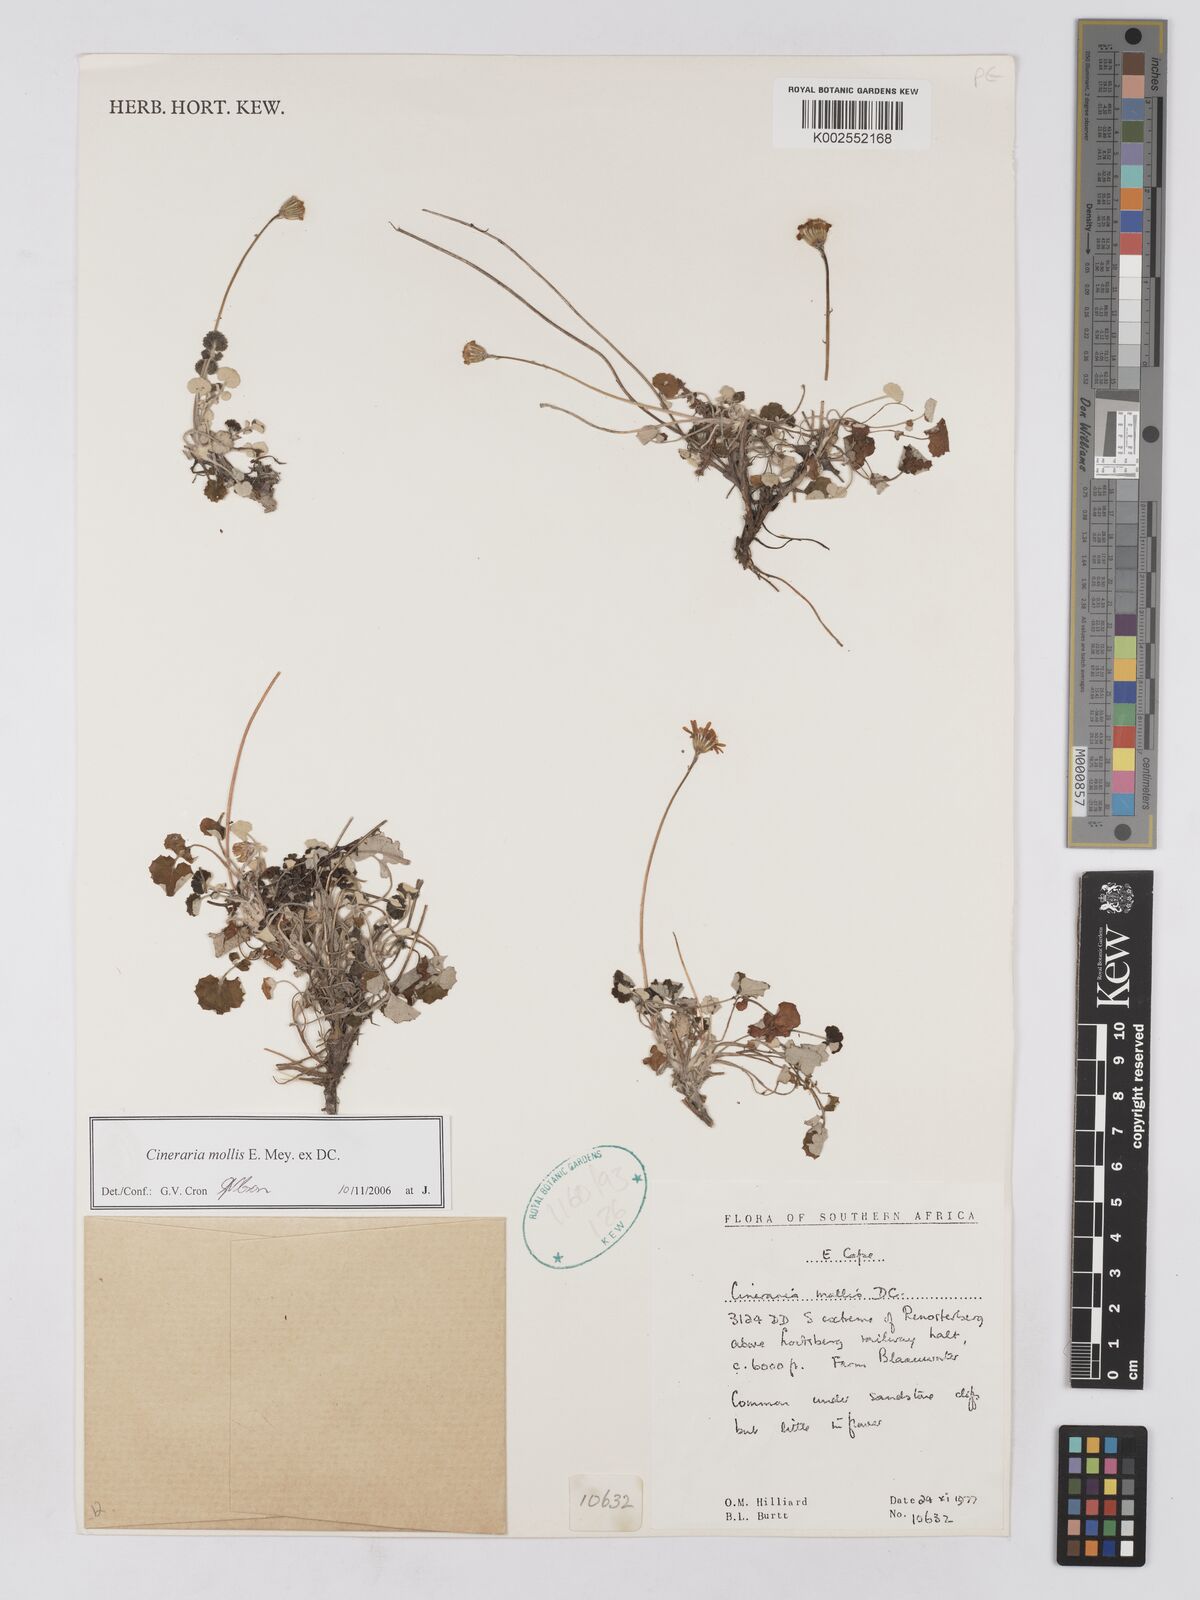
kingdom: Plantae
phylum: Tracheophyta
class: Magnoliopsida
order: Asterales
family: Asteraceae
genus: Cineraria
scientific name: Cineraria mollis
